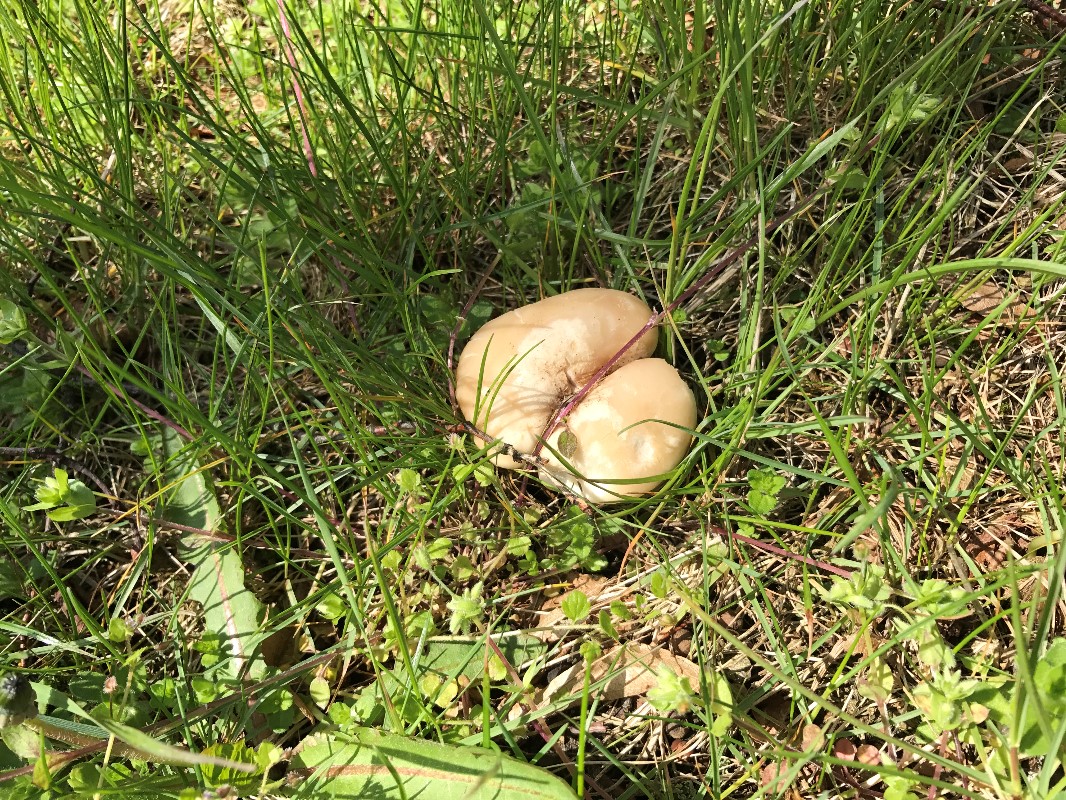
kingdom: Fungi
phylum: Basidiomycota
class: Agaricomycetes
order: Agaricales
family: Lyophyllaceae
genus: Calocybe
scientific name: Calocybe gambosa
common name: vårmusseron
